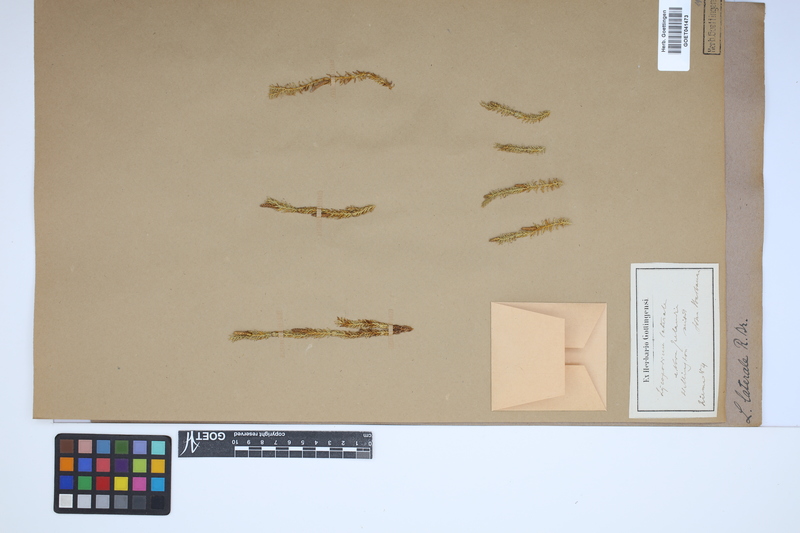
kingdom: Plantae
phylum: Tracheophyta
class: Lycopodiopsida
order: Lycopodiales
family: Lycopodiaceae
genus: Lateristachys
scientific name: Lateristachys lateralis
